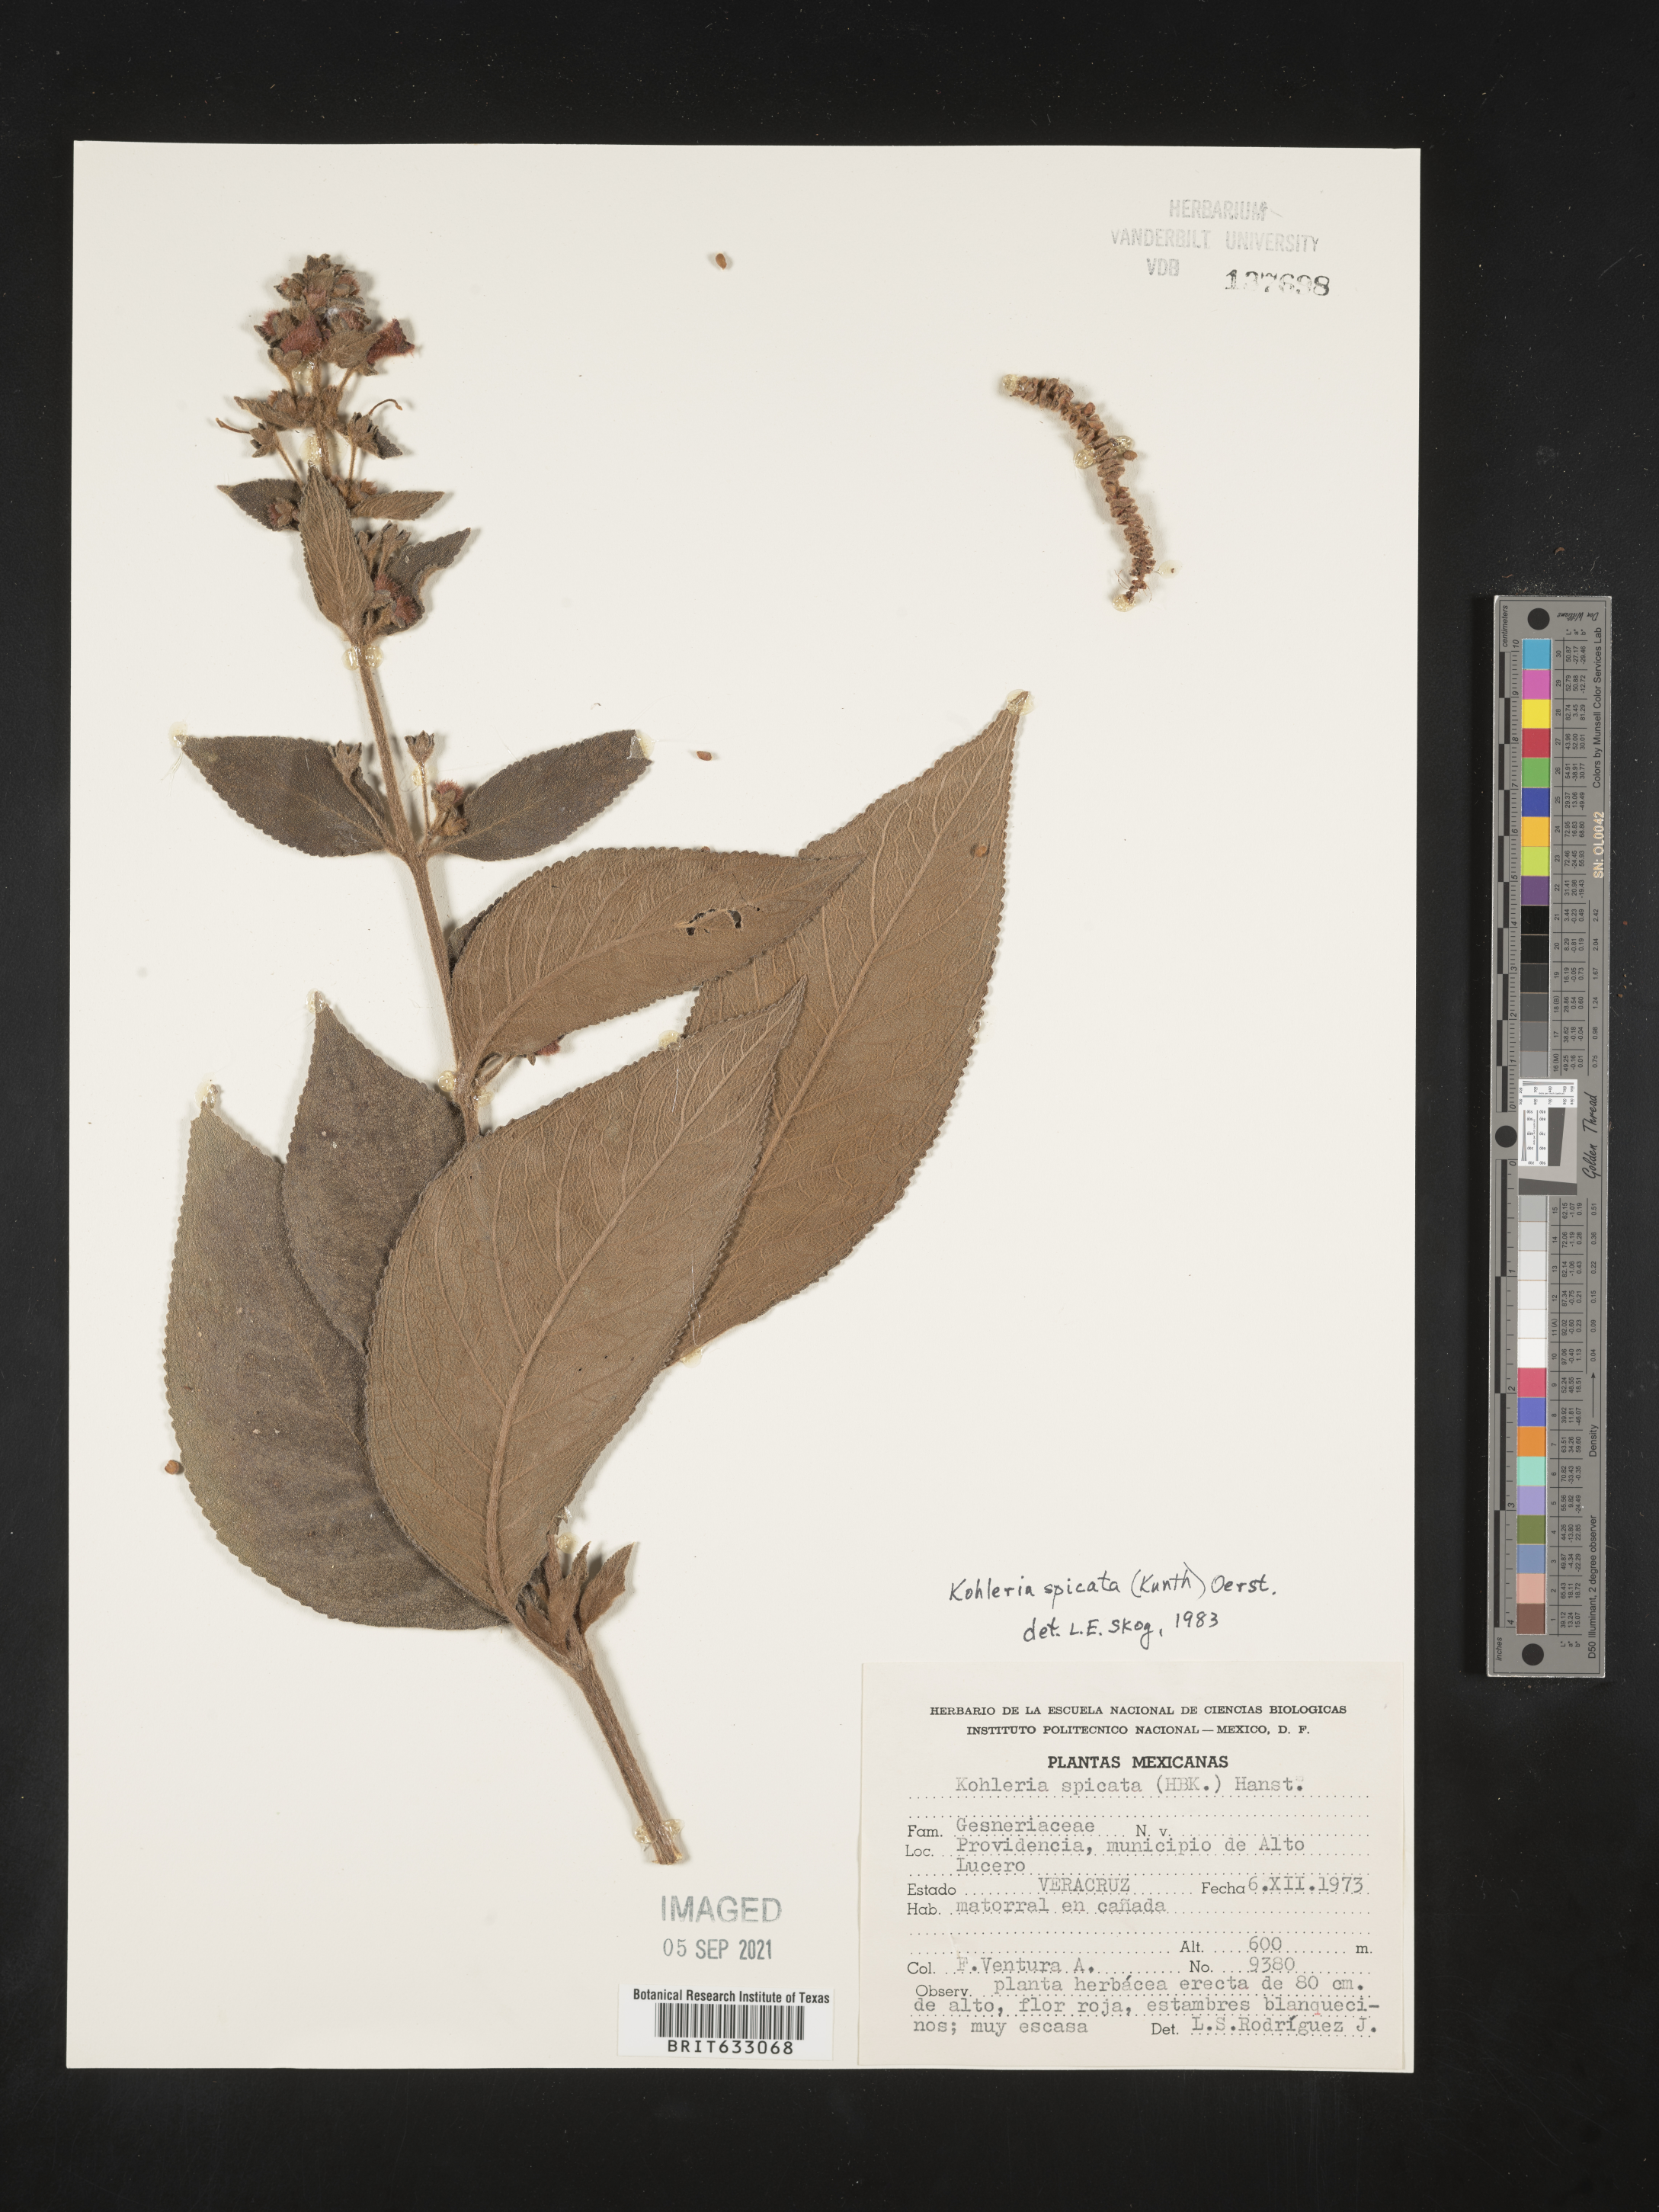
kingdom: Plantae
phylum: Tracheophyta
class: Magnoliopsida
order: Lamiales
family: Gesneriaceae
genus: Kohleria
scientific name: Kohleria spicata
